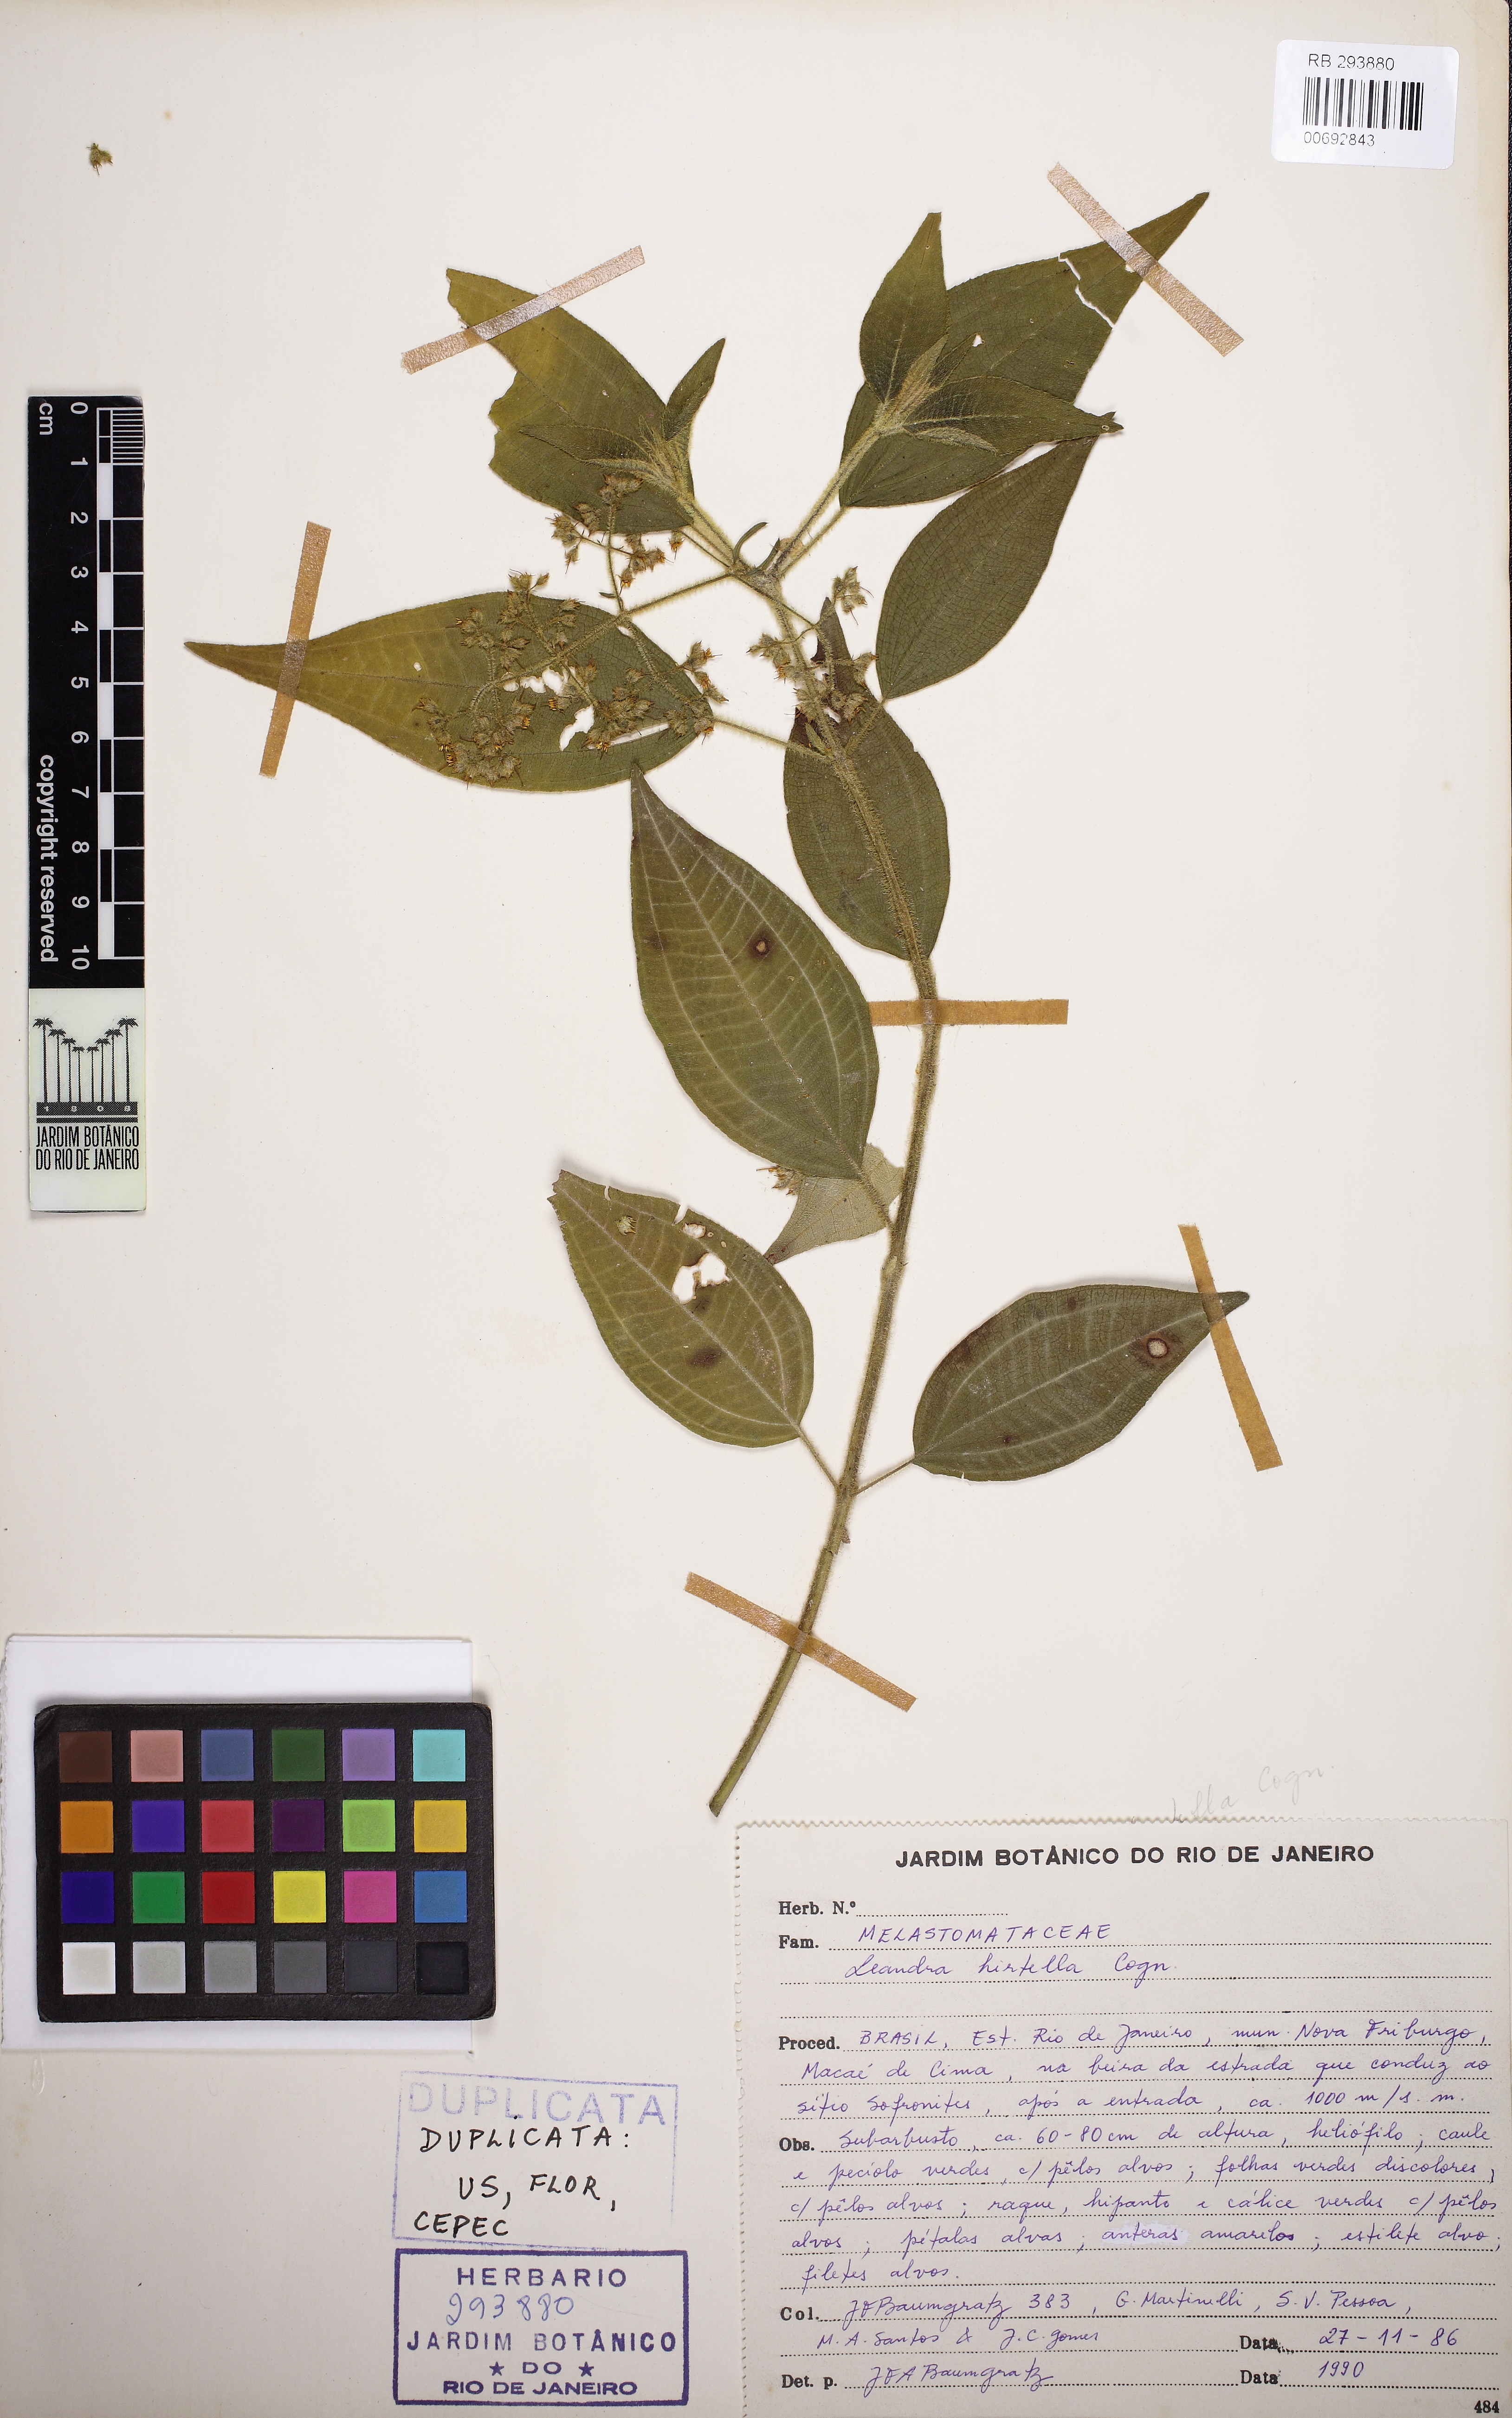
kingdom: Plantae
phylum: Tracheophyta
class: Magnoliopsida
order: Myrtales
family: Melastomataceae
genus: Miconia
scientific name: Miconia leahirtella
